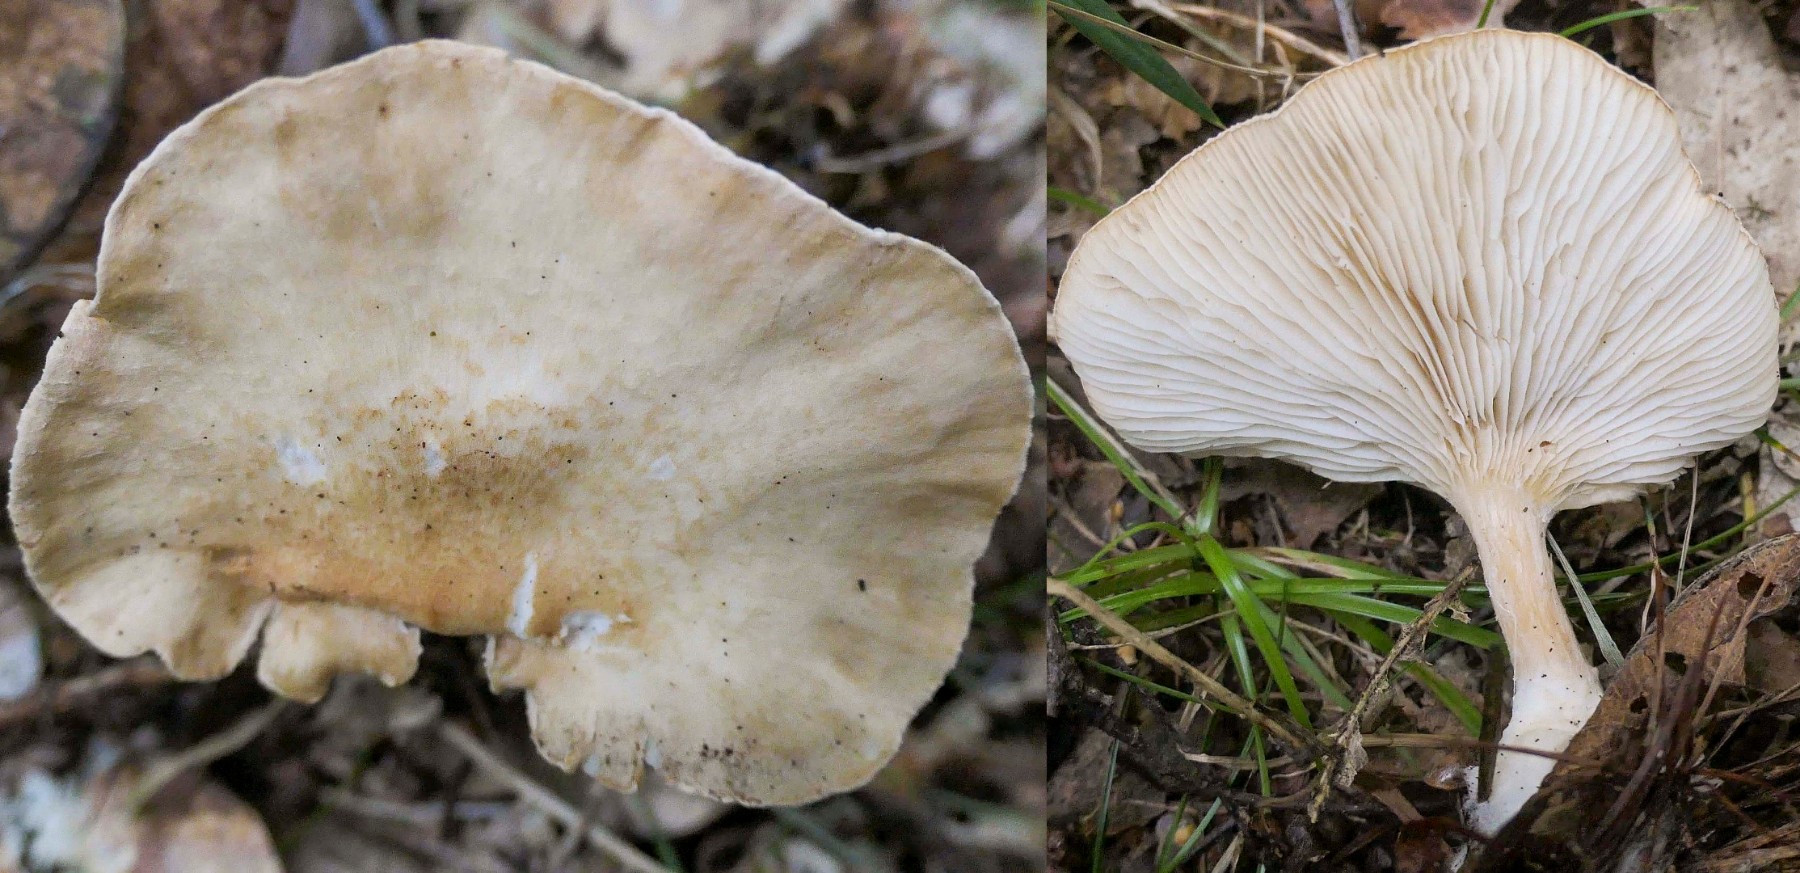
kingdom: Fungi
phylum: Basidiomycota
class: Agaricomycetes
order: Agaricales
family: Tricholomataceae
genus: Infundibulicybe
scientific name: Infundibulicybe squamulosa
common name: småskællet tragthat
